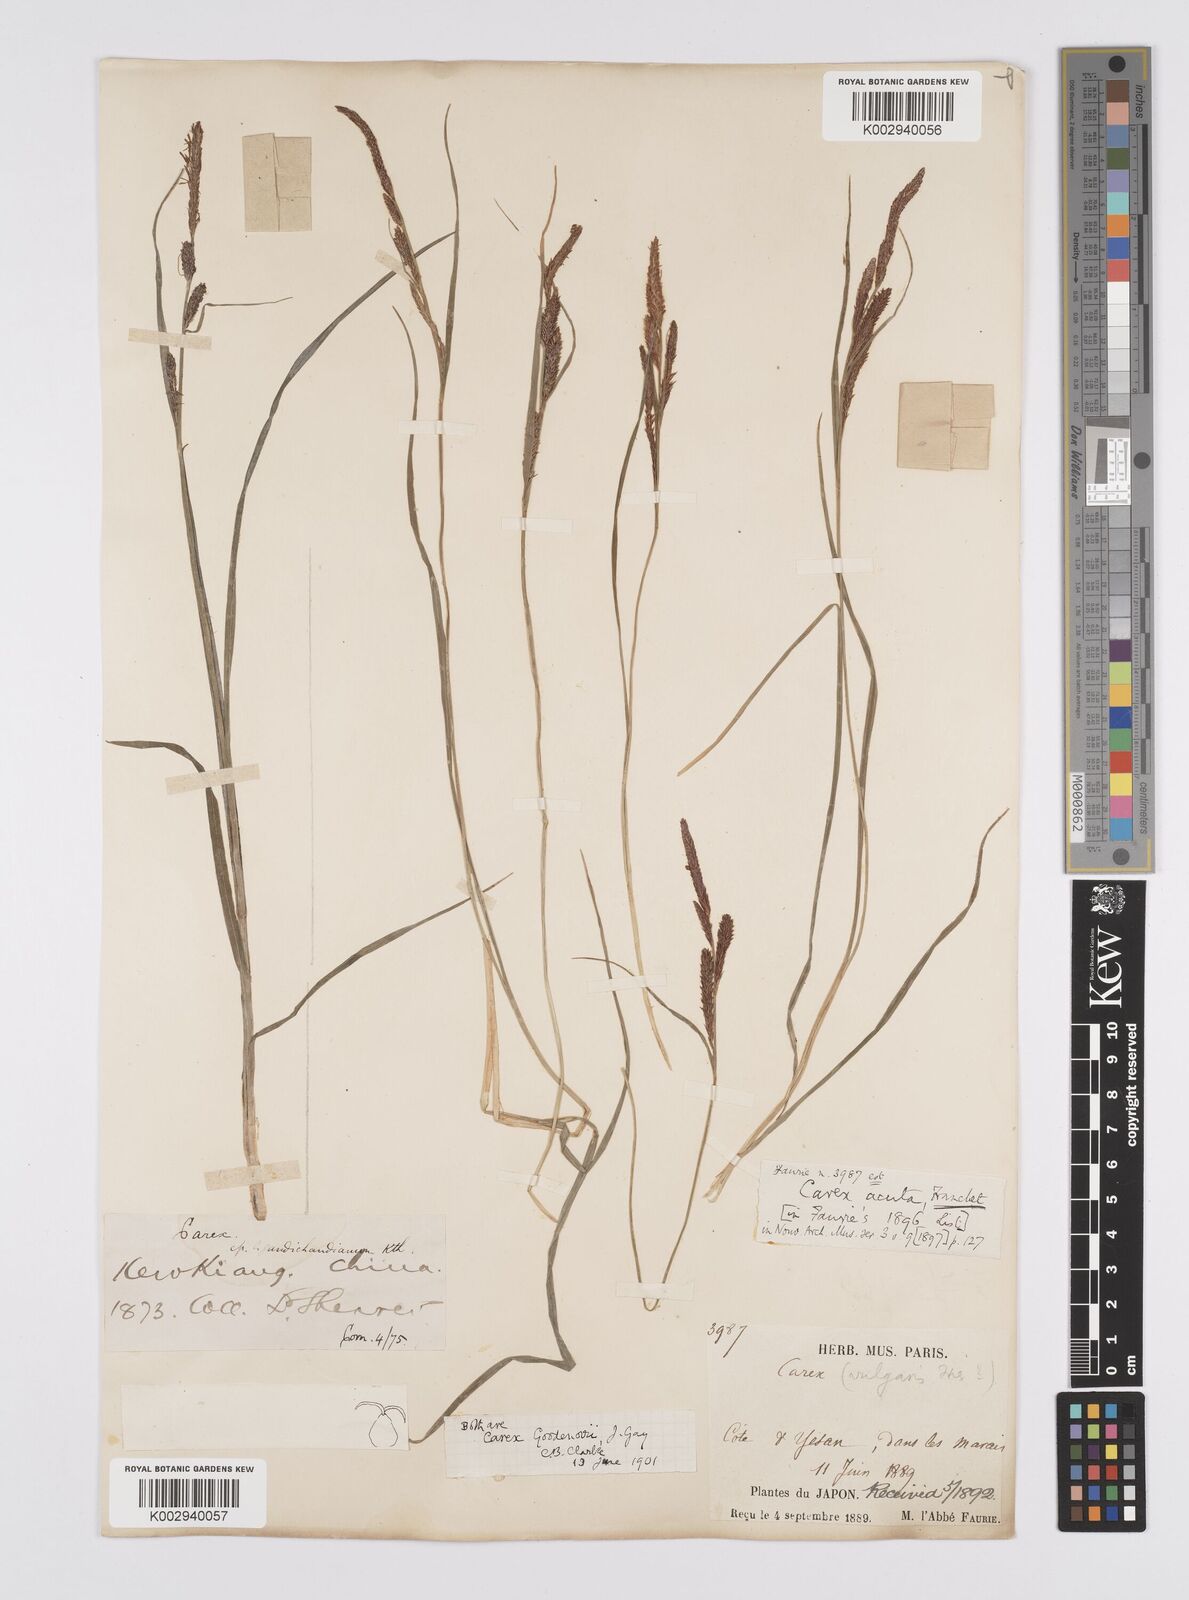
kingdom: Plantae
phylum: Tracheophyta
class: Liliopsida
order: Poales
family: Cyperaceae
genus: Carex
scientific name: Carex thunbergii
